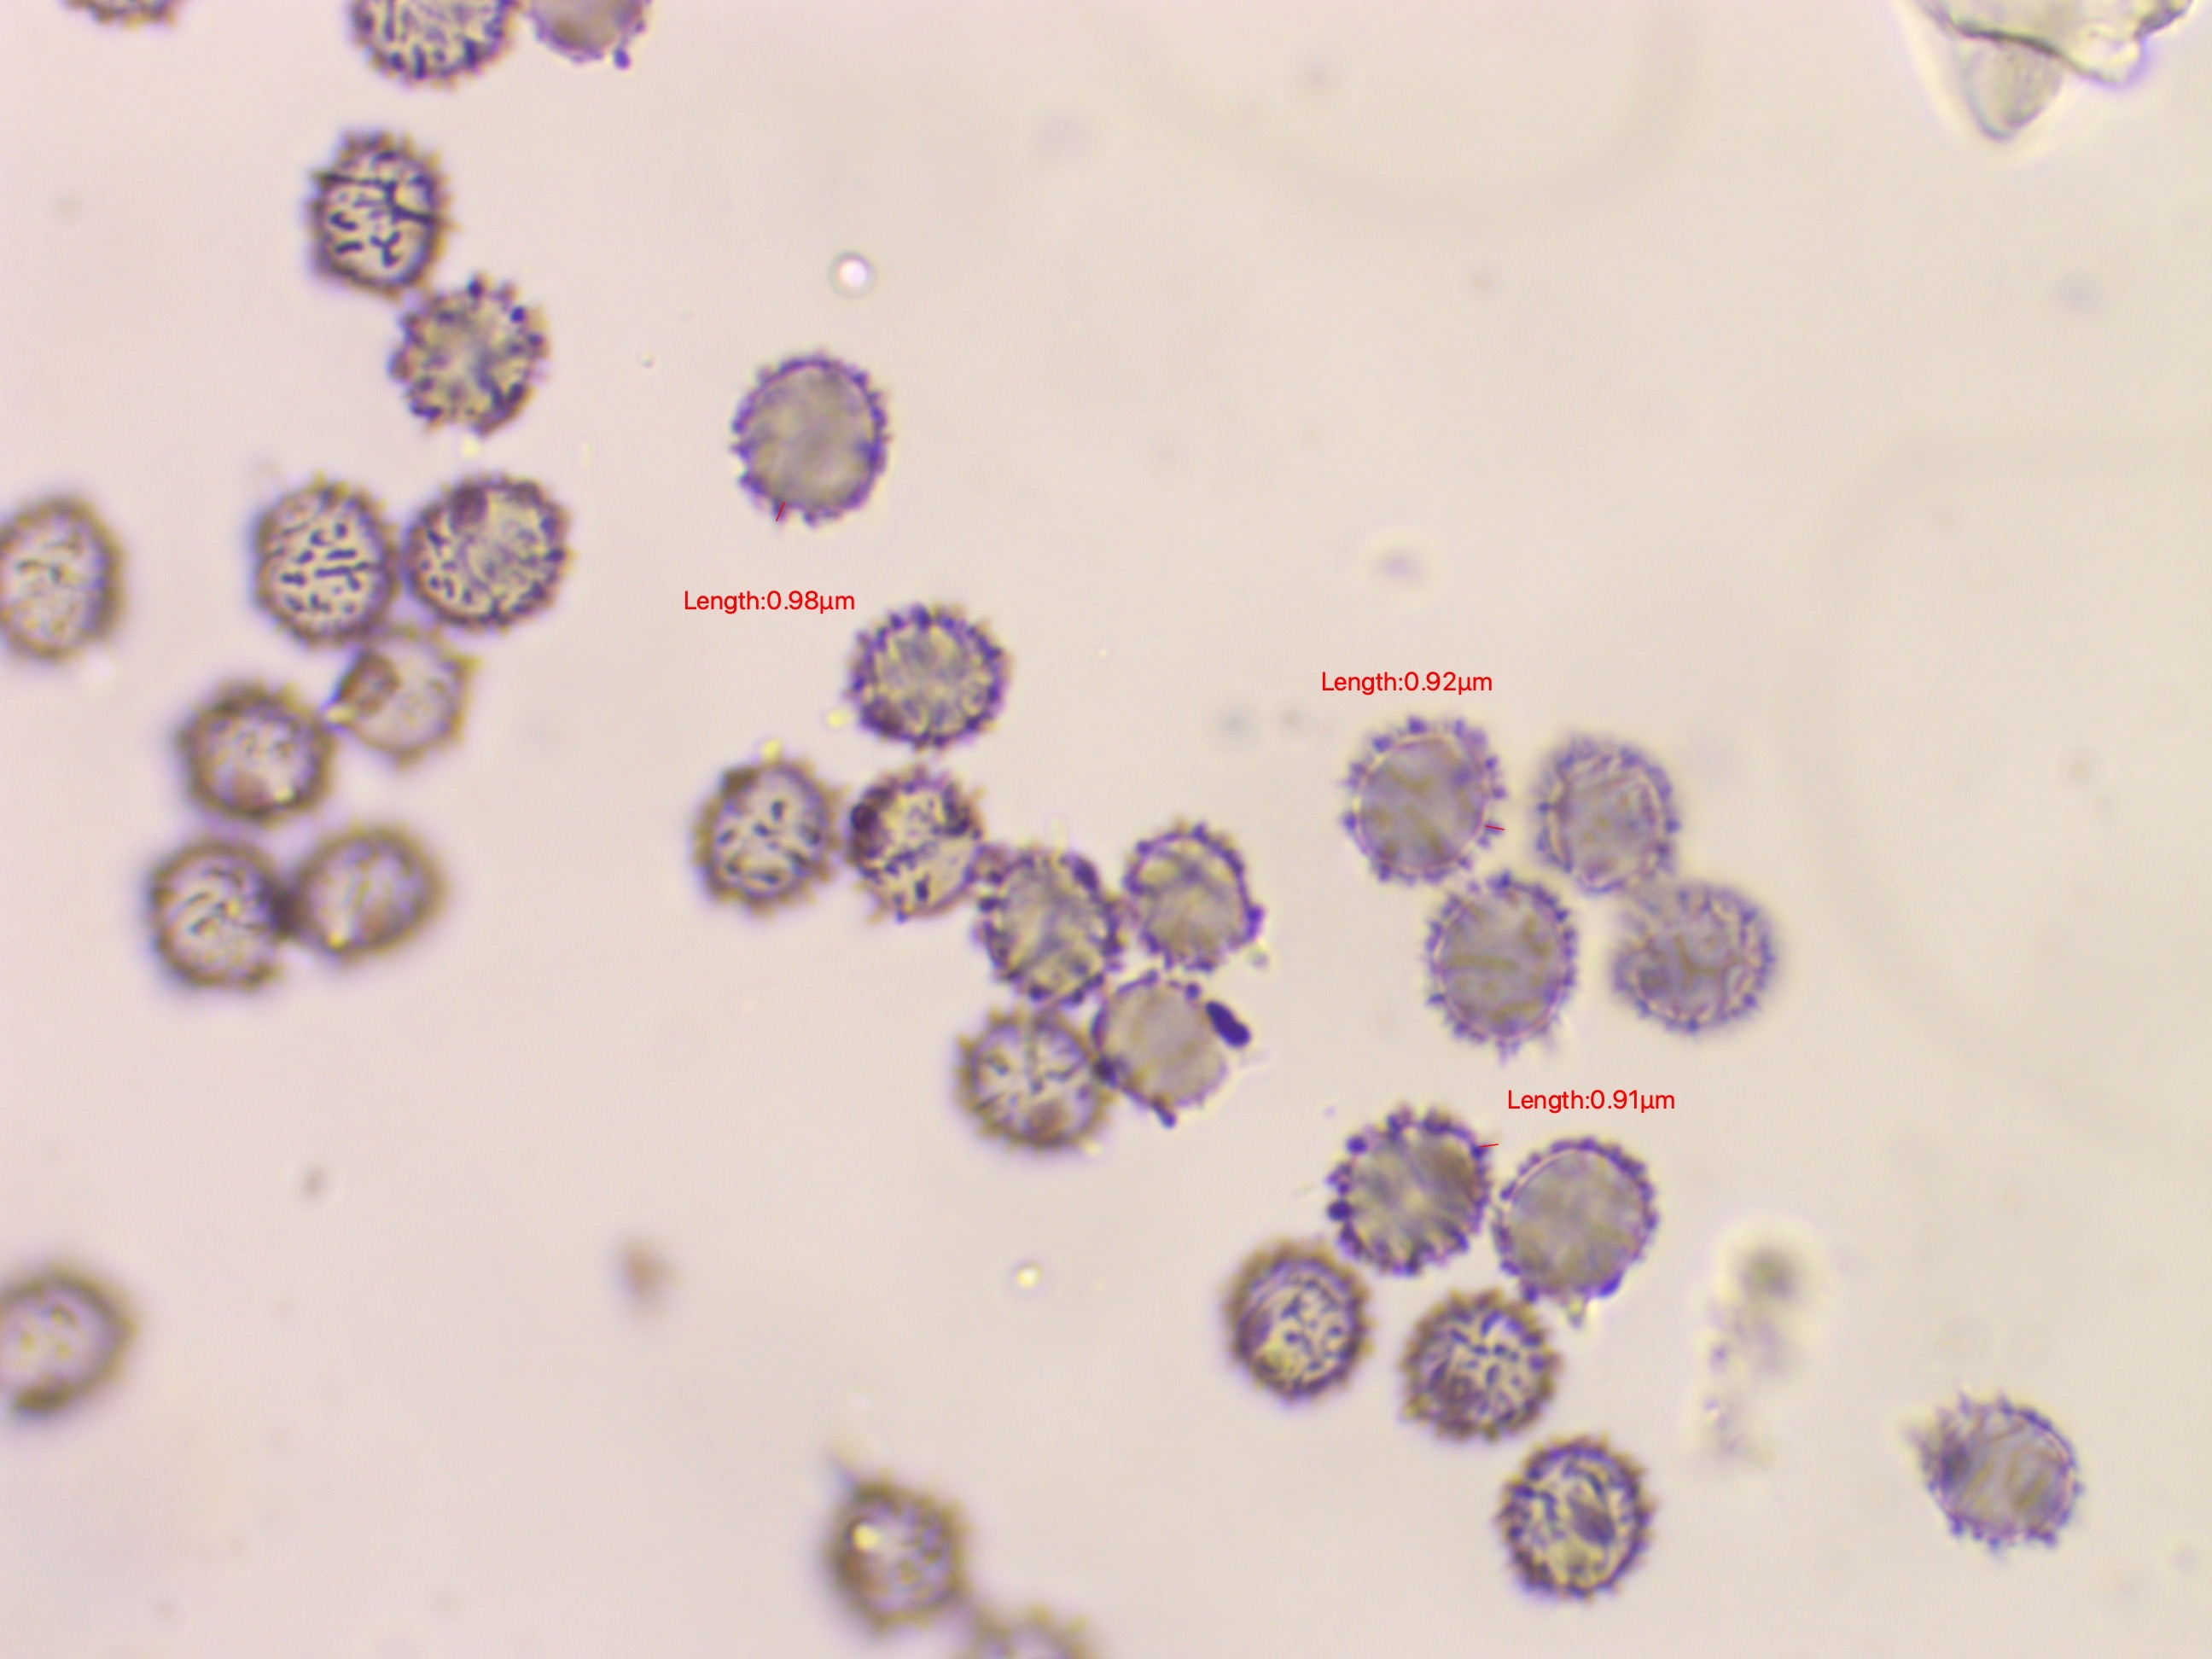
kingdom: Fungi
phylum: Basidiomycota
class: Agaricomycetes
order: Russulales
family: Russulaceae
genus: Russula
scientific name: Russula recondita
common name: mild kam-skørhat
